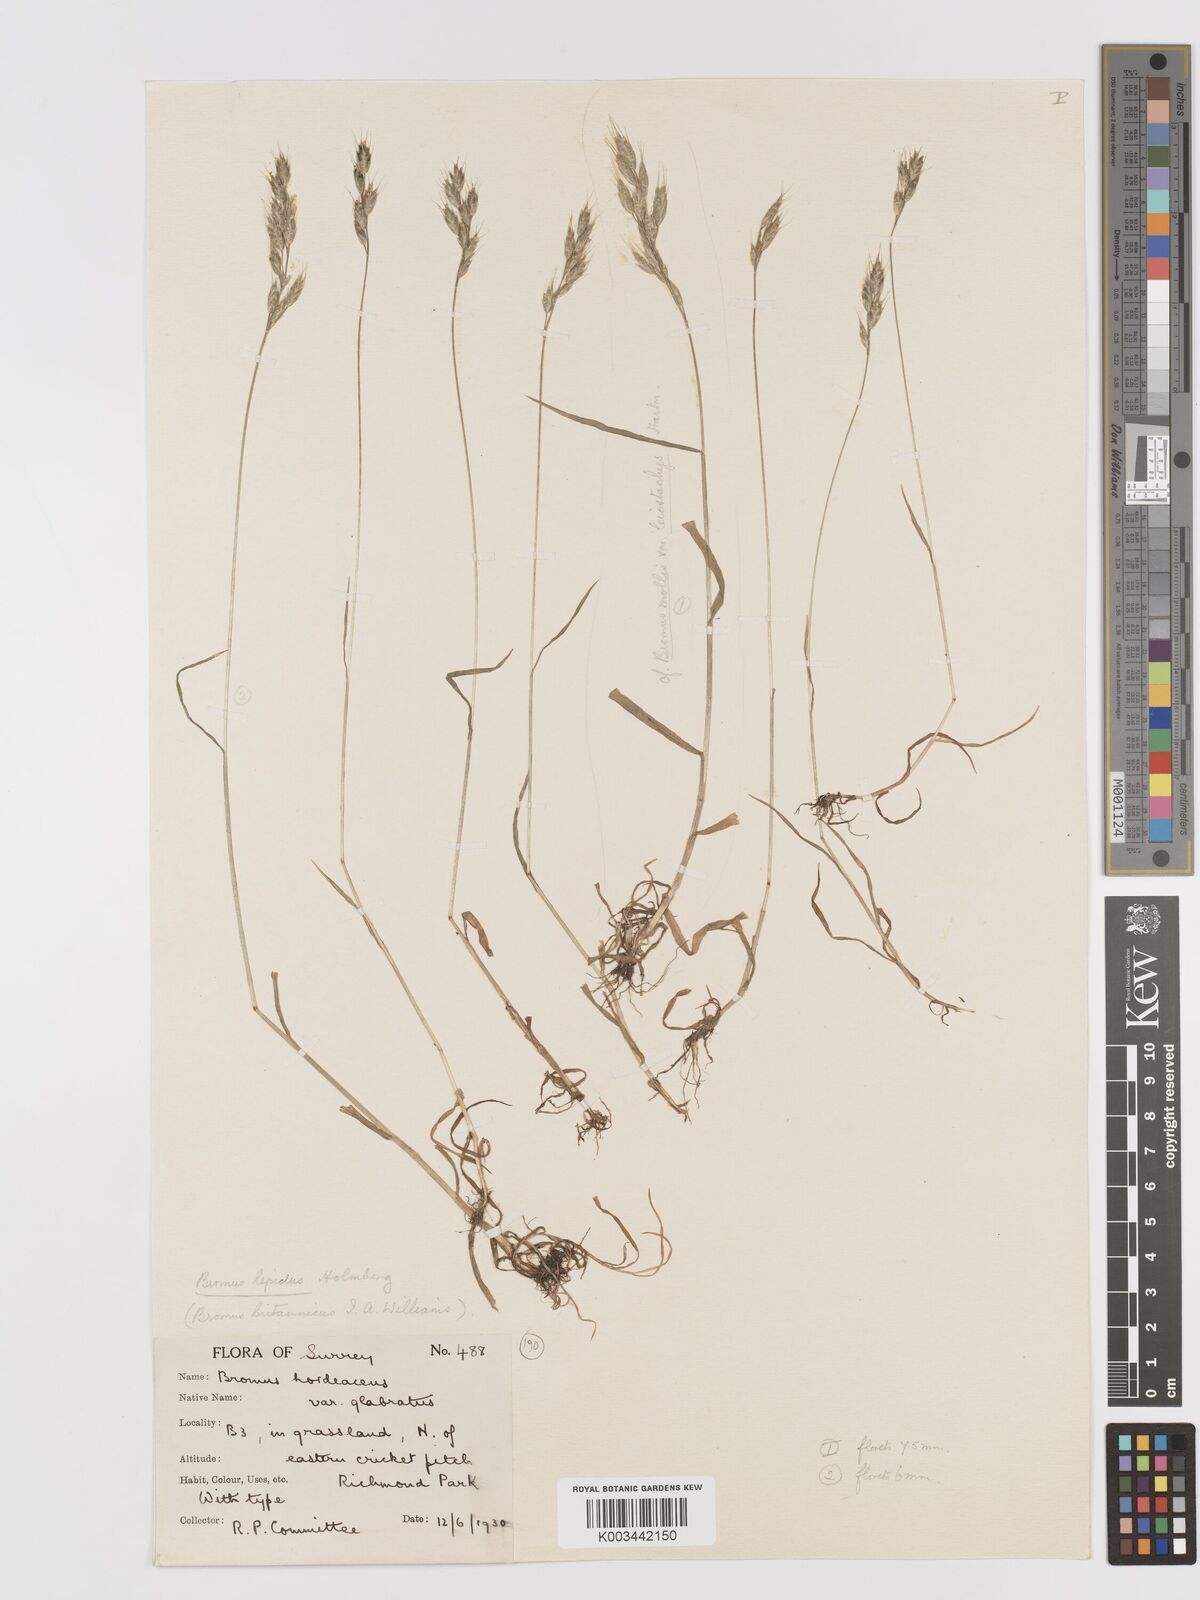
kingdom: Plantae
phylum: Tracheophyta
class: Liliopsida
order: Poales
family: Poaceae
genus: Bromus
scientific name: Bromus lepidus
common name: Slender soft-brome
